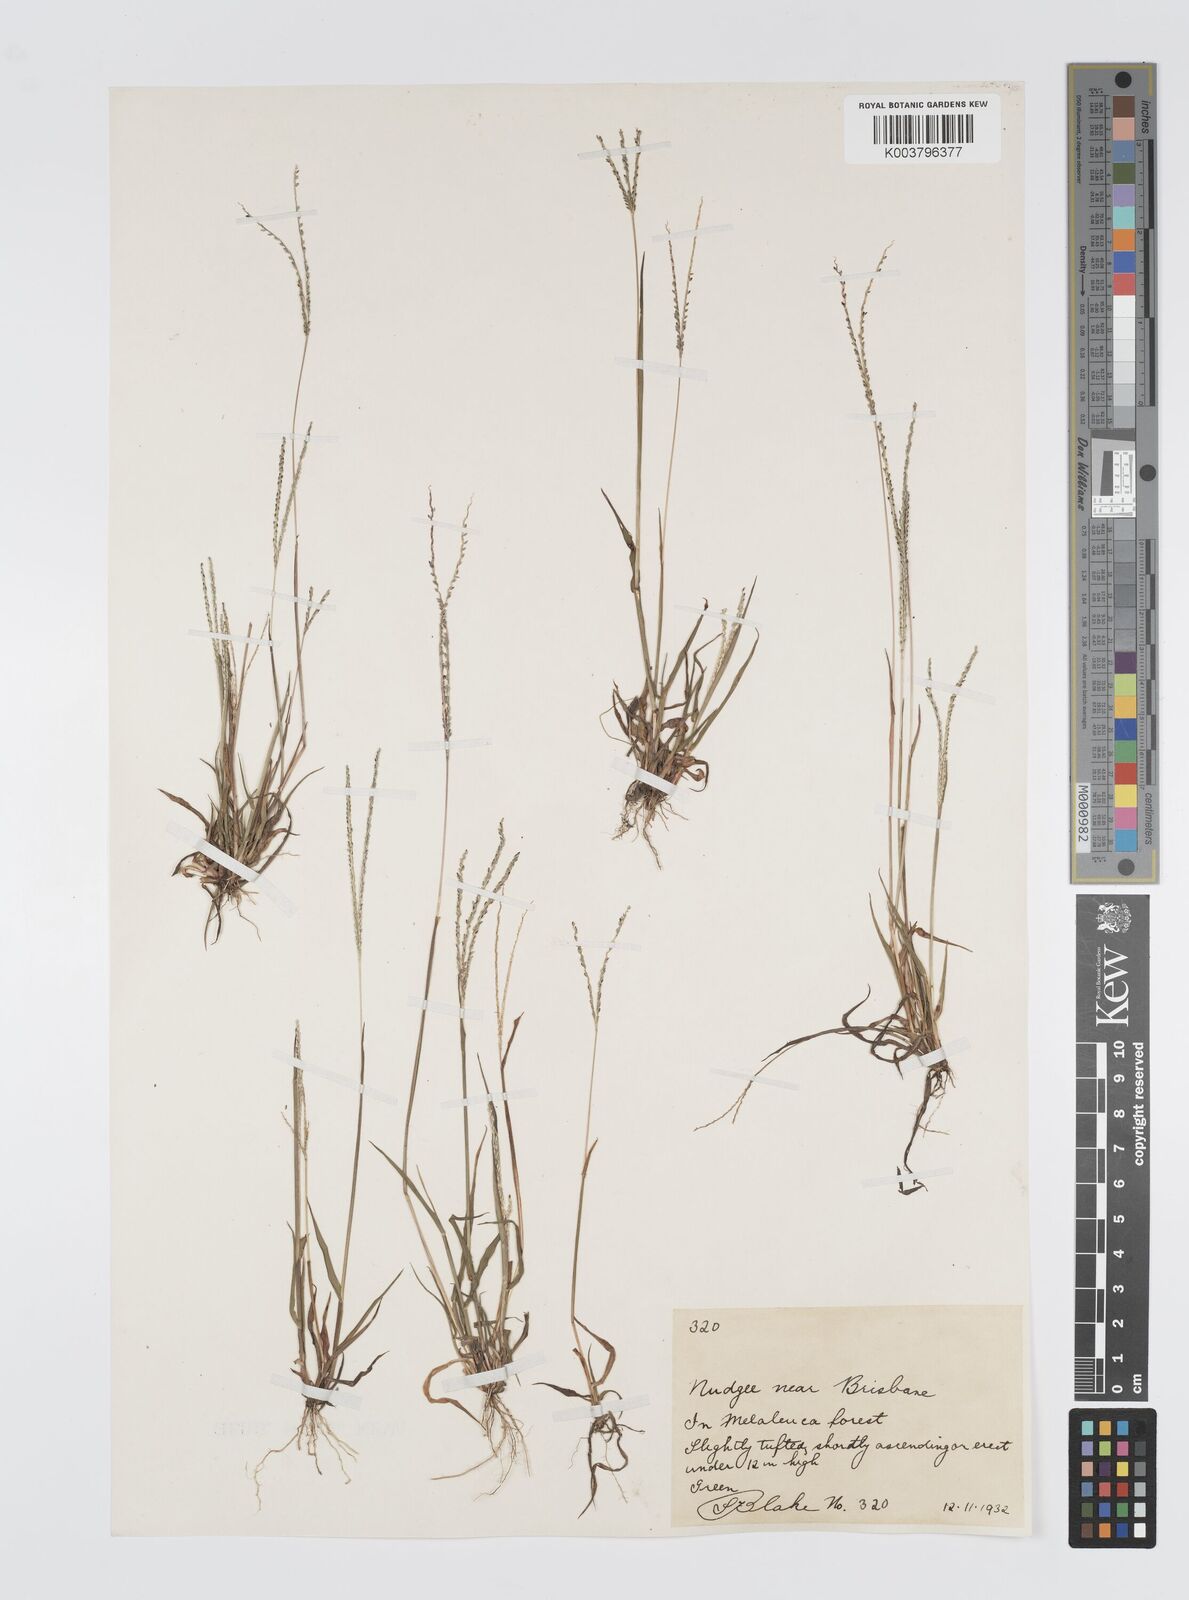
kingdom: Plantae
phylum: Tracheophyta
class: Liliopsida
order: Poales
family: Poaceae
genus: Digitaria
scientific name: Digitaria violascens
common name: Violet crabgrass
